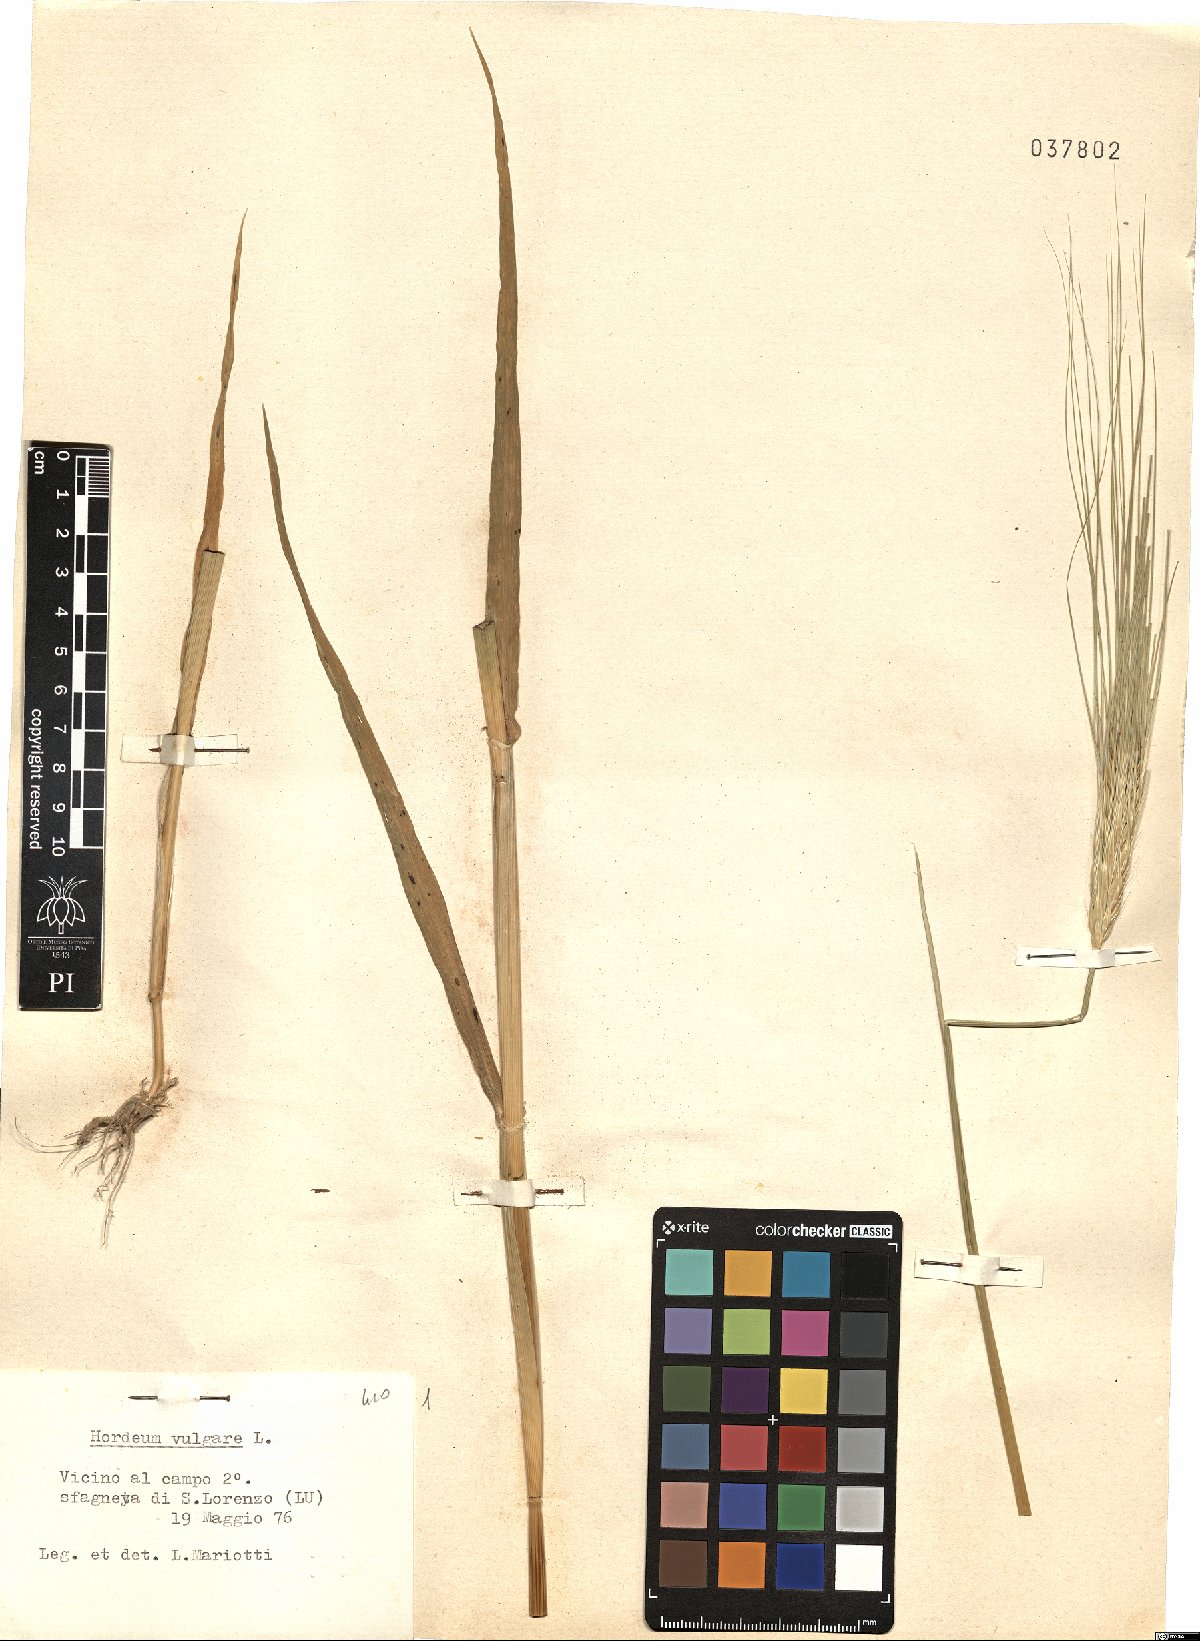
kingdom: Plantae
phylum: Tracheophyta
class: Liliopsida
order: Poales
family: Poaceae
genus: Hordeum
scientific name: Hordeum vulgare
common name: Common barley
